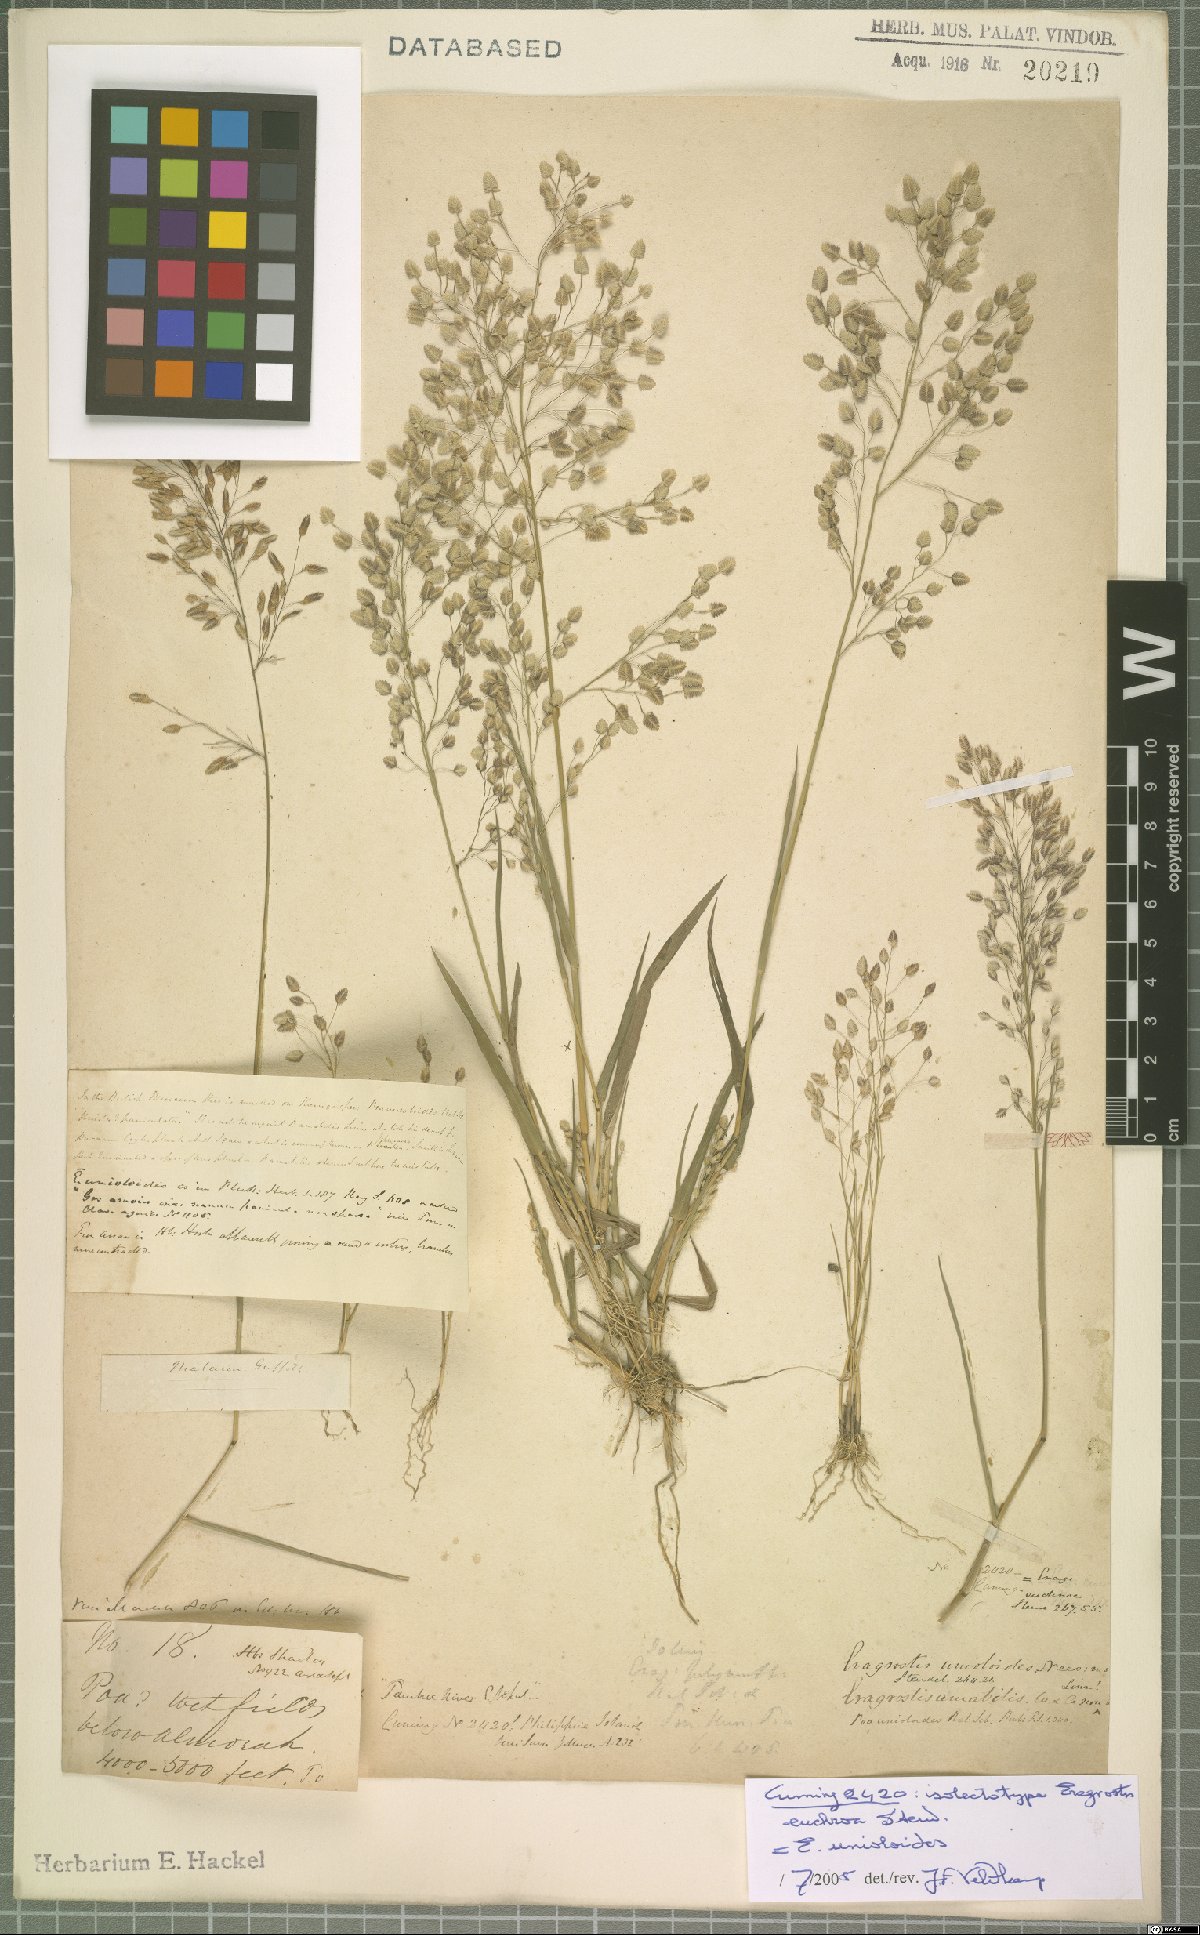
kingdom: Plantae
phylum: Tracheophyta
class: Liliopsida
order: Poales
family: Poaceae
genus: Eragrostis
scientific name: Eragrostis unioloides
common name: Chinese lovegrass
